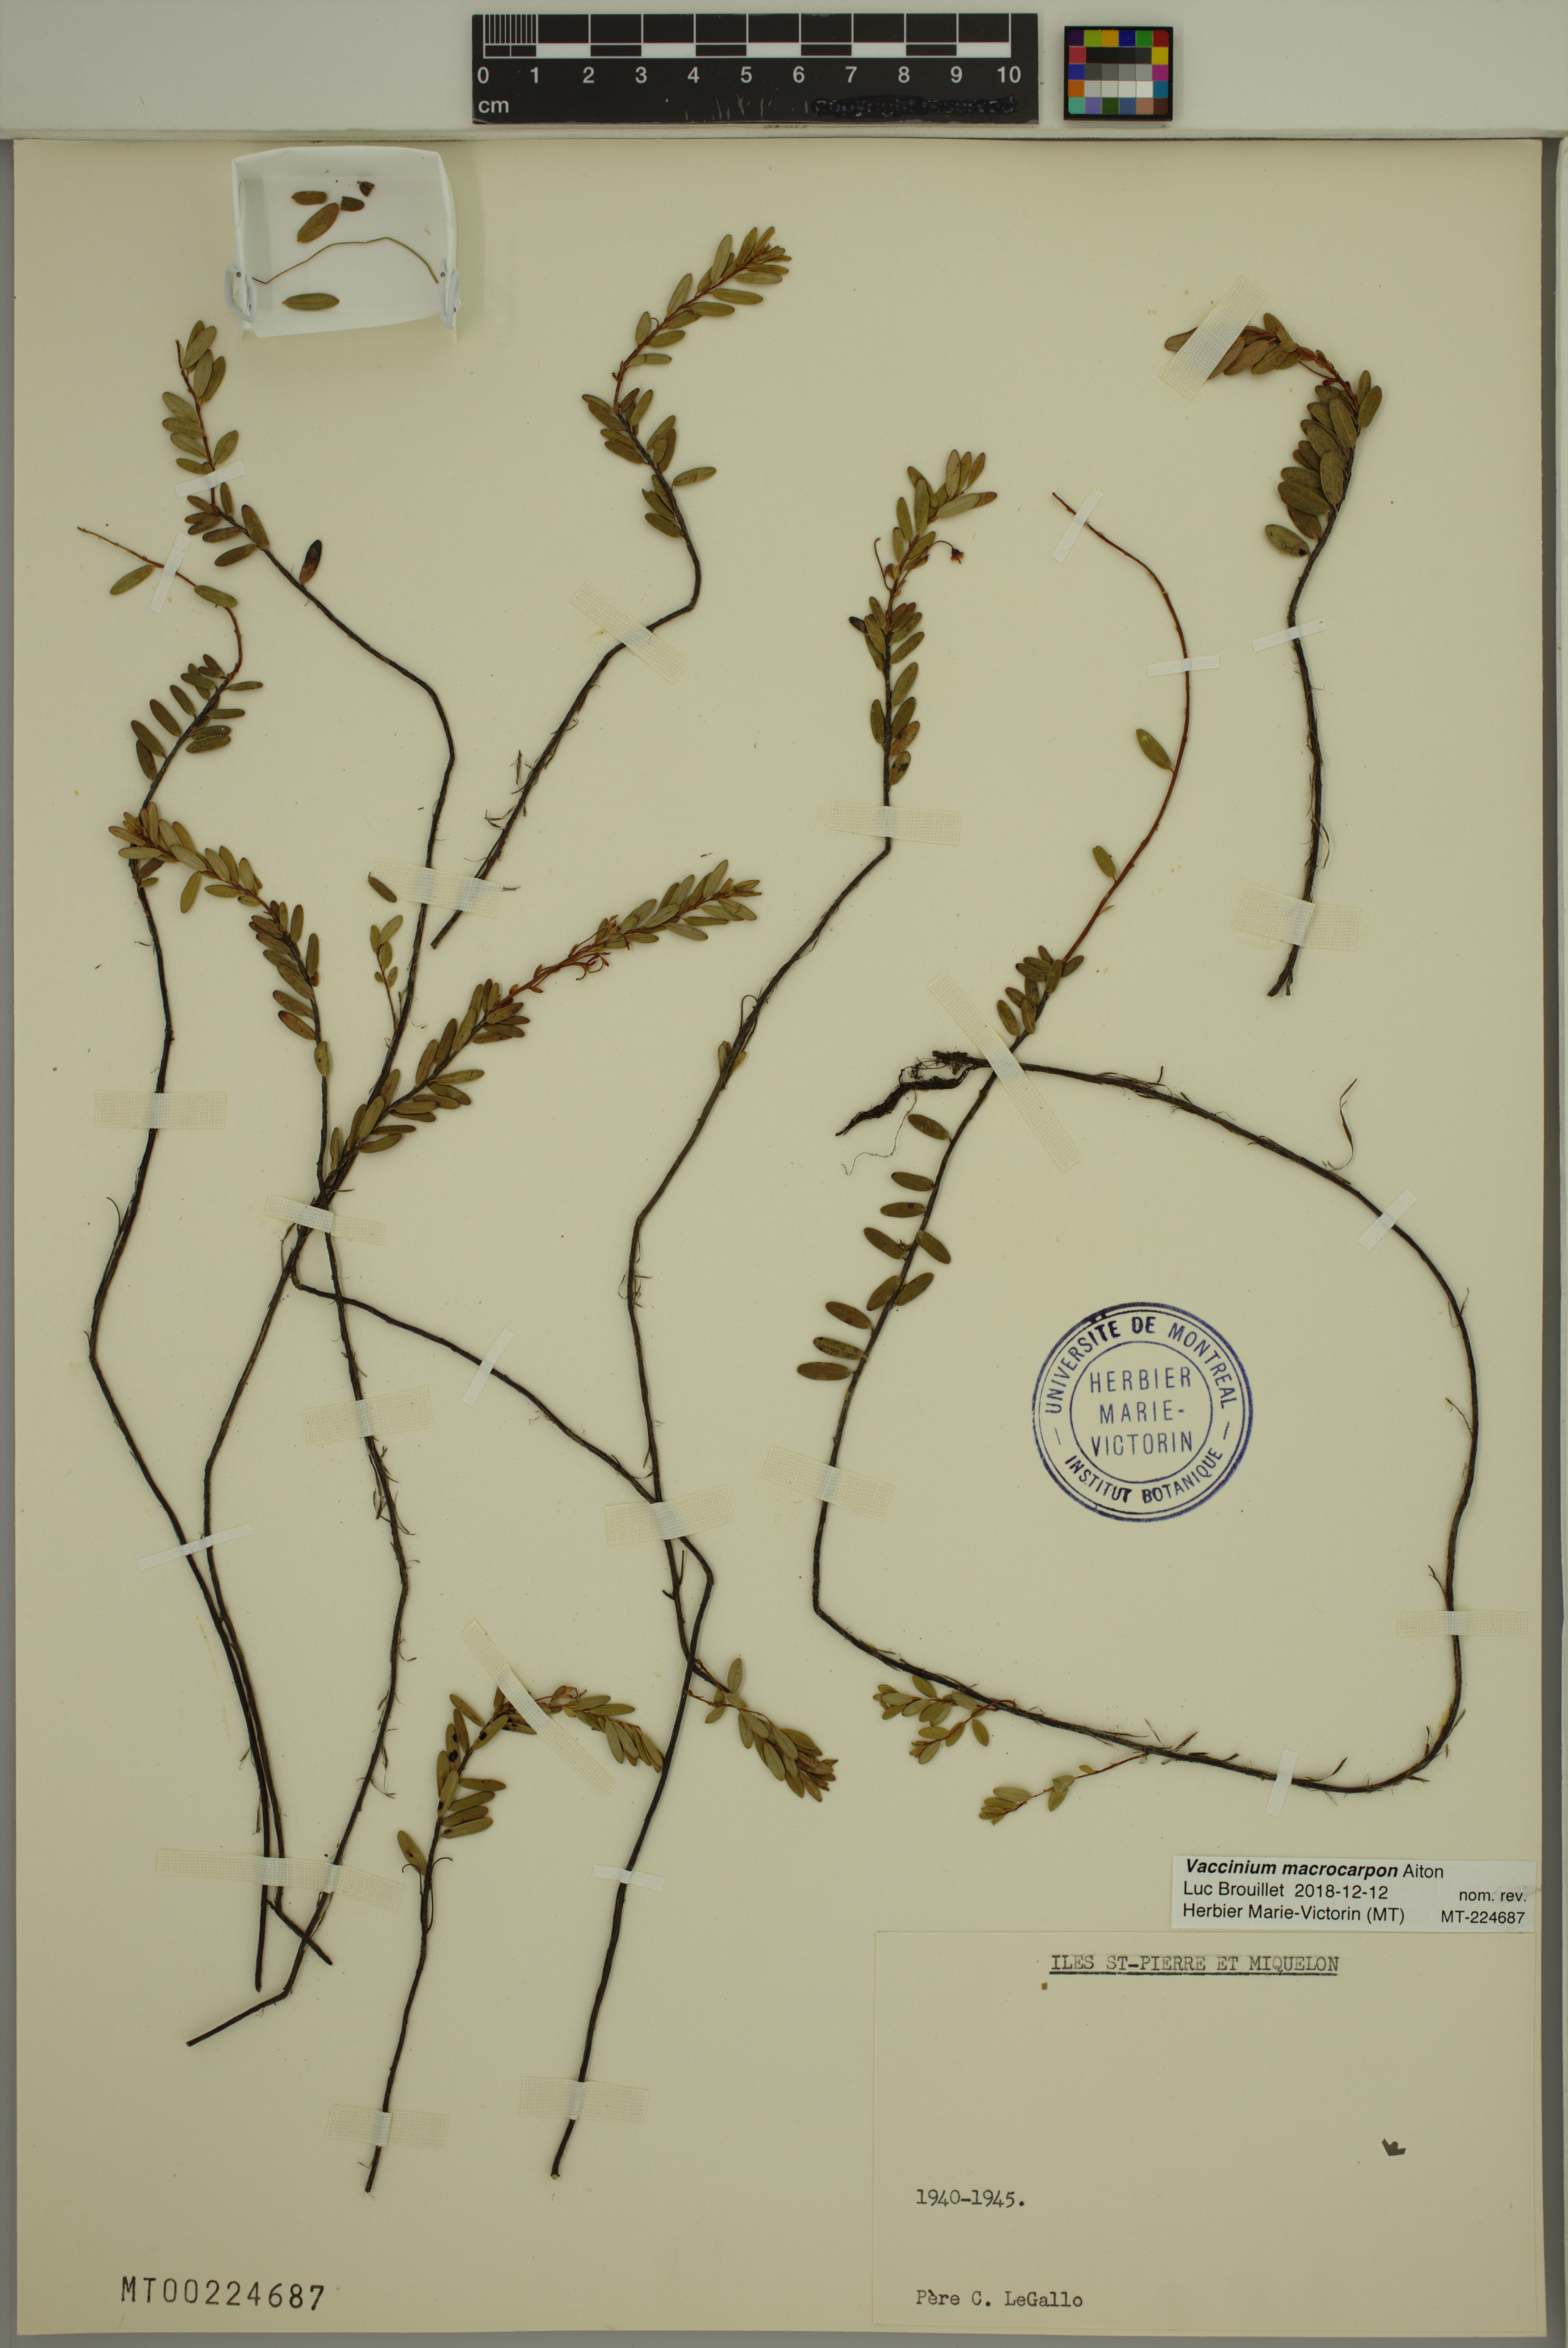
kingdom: Plantae
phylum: Tracheophyta
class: Magnoliopsida
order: Ericales
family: Ericaceae
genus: Vaccinium
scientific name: Vaccinium macrocarpon
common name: American cranberry
